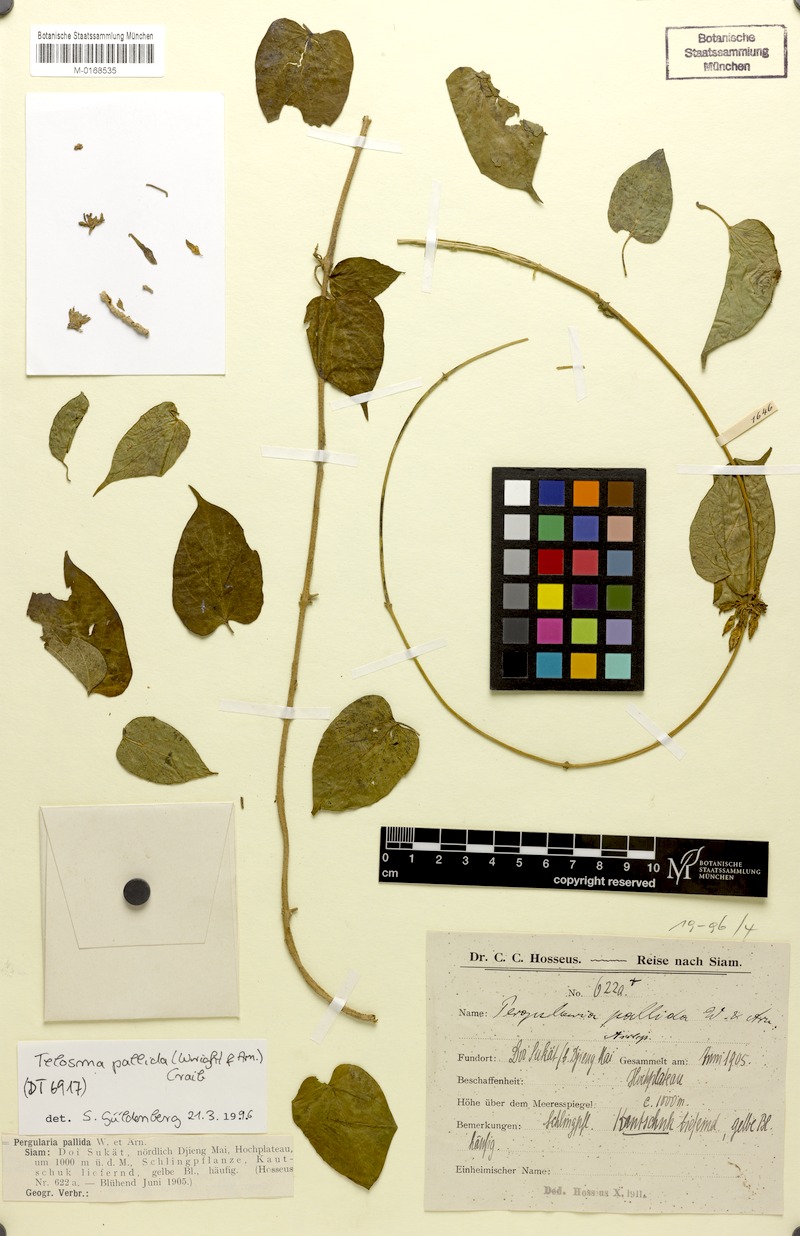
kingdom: Plantae
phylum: Tracheophyta
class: Magnoliopsida
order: Gentianales
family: Apocynaceae
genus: Telosma
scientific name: Telosma pallida
